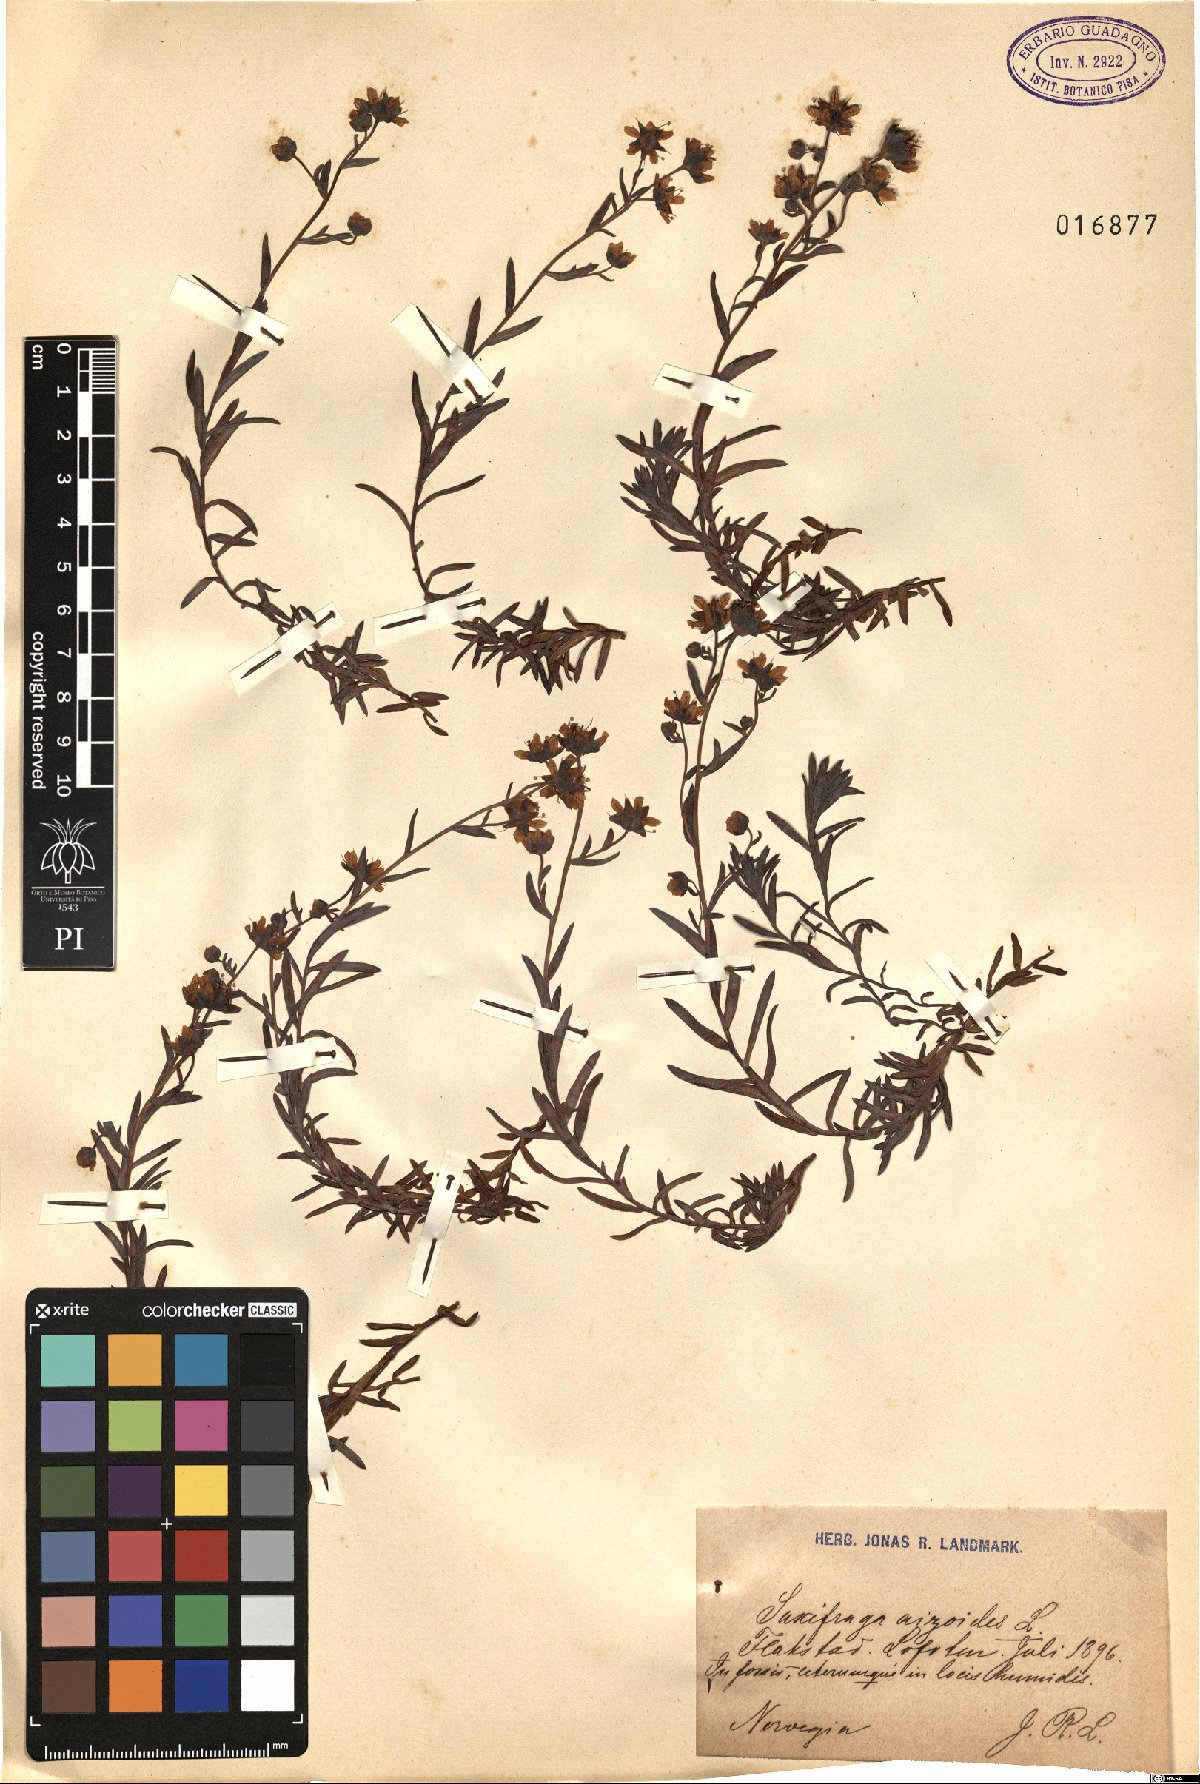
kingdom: Plantae
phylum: Tracheophyta
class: Magnoliopsida
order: Saxifragales
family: Saxifragaceae
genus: Saxifraga
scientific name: Saxifraga aizoides
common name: Yellow mountain saxifrage
